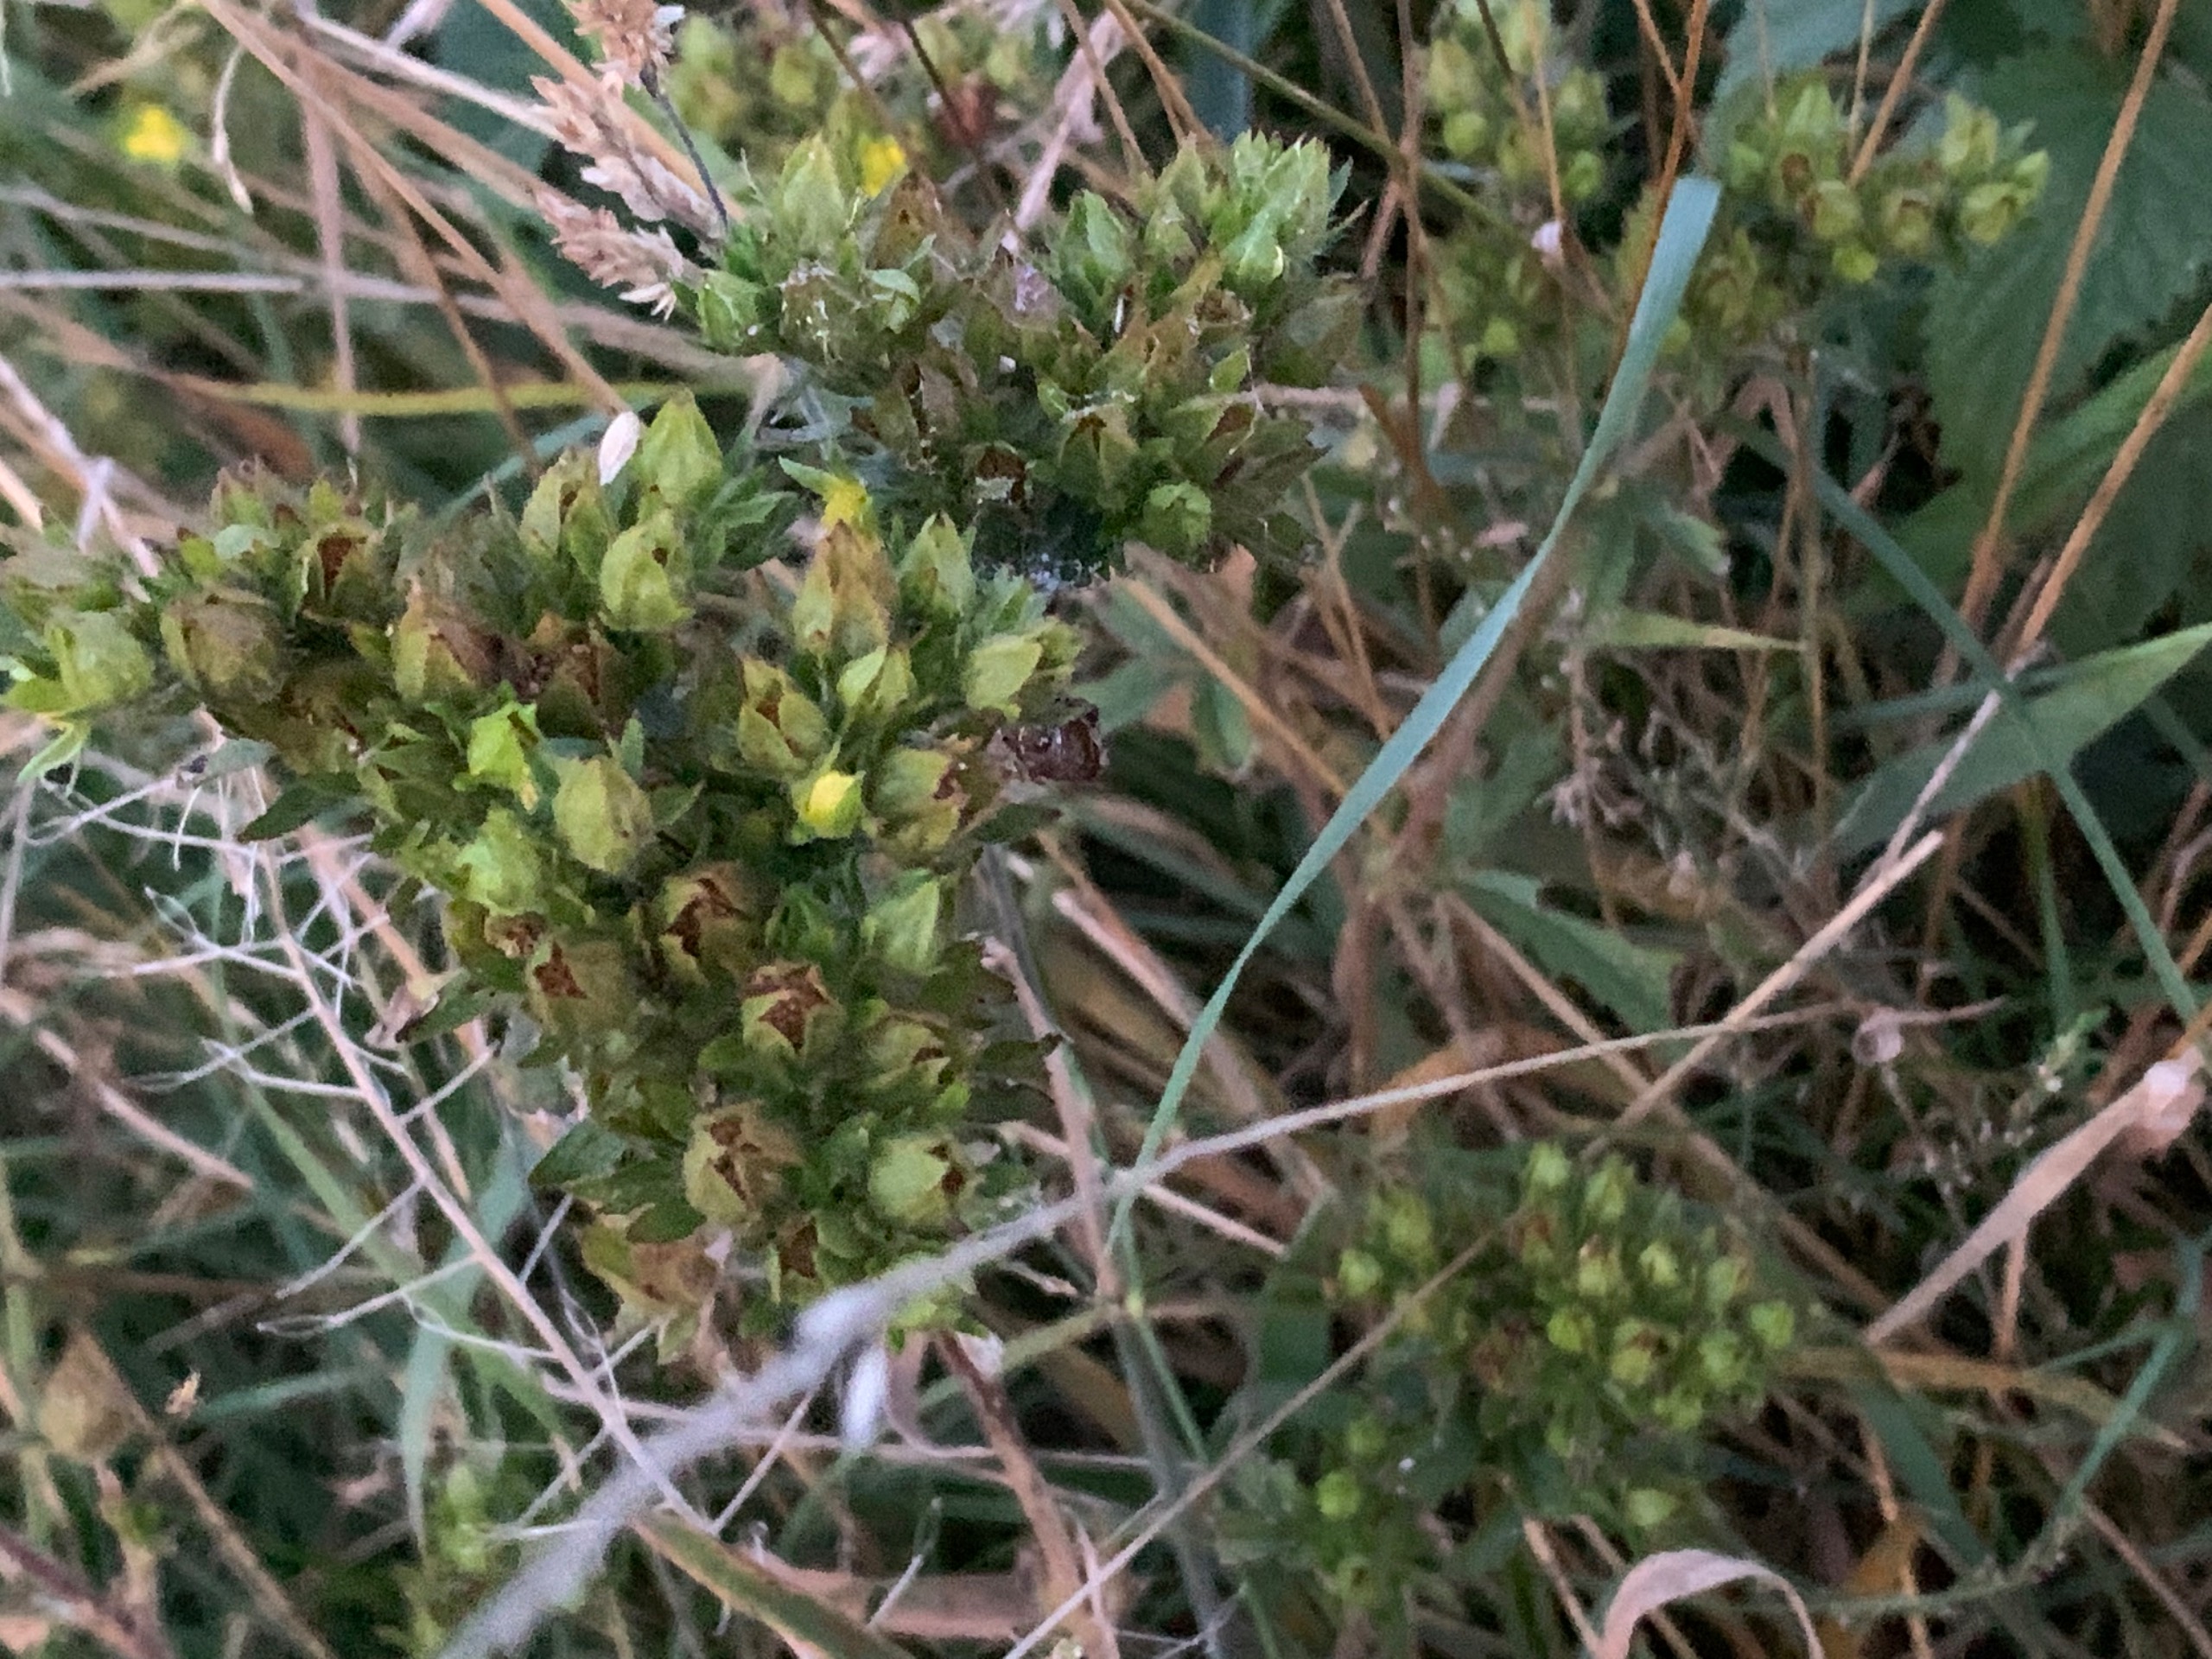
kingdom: Plantae
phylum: Tracheophyta
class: Magnoliopsida
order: Rosales
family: Rosaceae
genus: Potentilla
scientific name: Potentilla norvegica
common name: Norsk potentil
